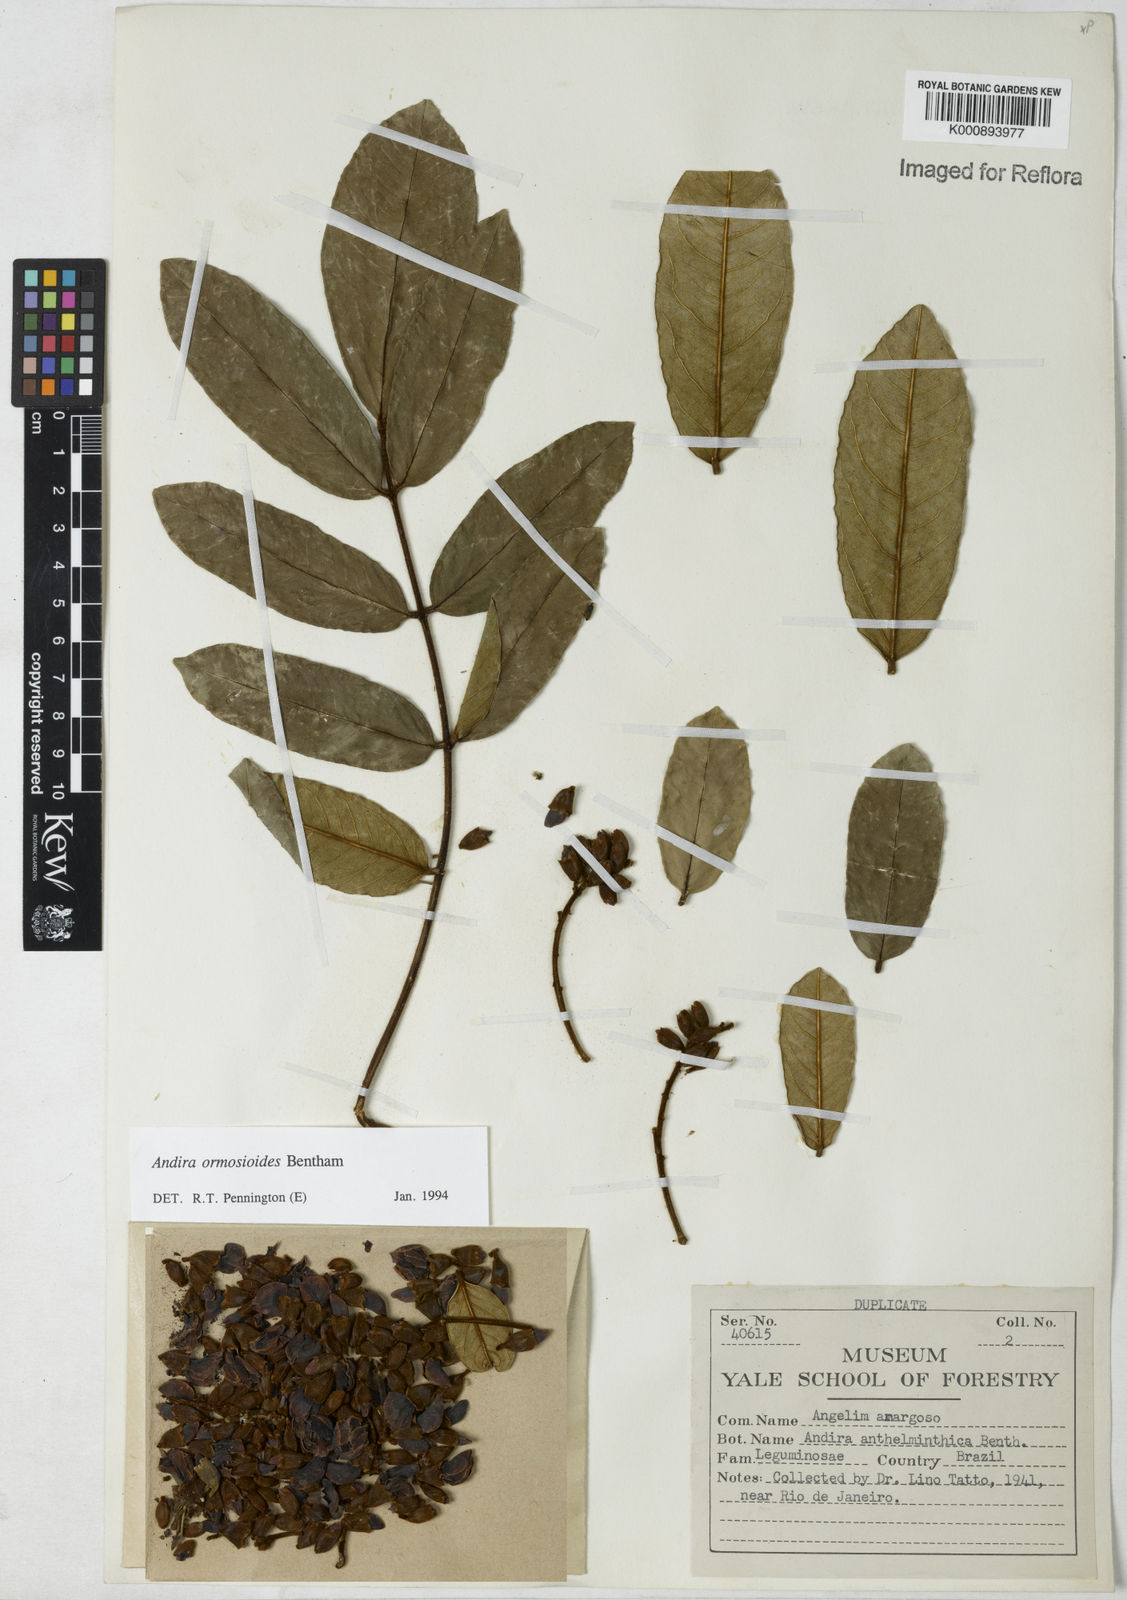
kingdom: Plantae
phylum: Tracheophyta
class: Magnoliopsida
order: Fabales
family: Fabaceae
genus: Andira
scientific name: Andira ormosioides
